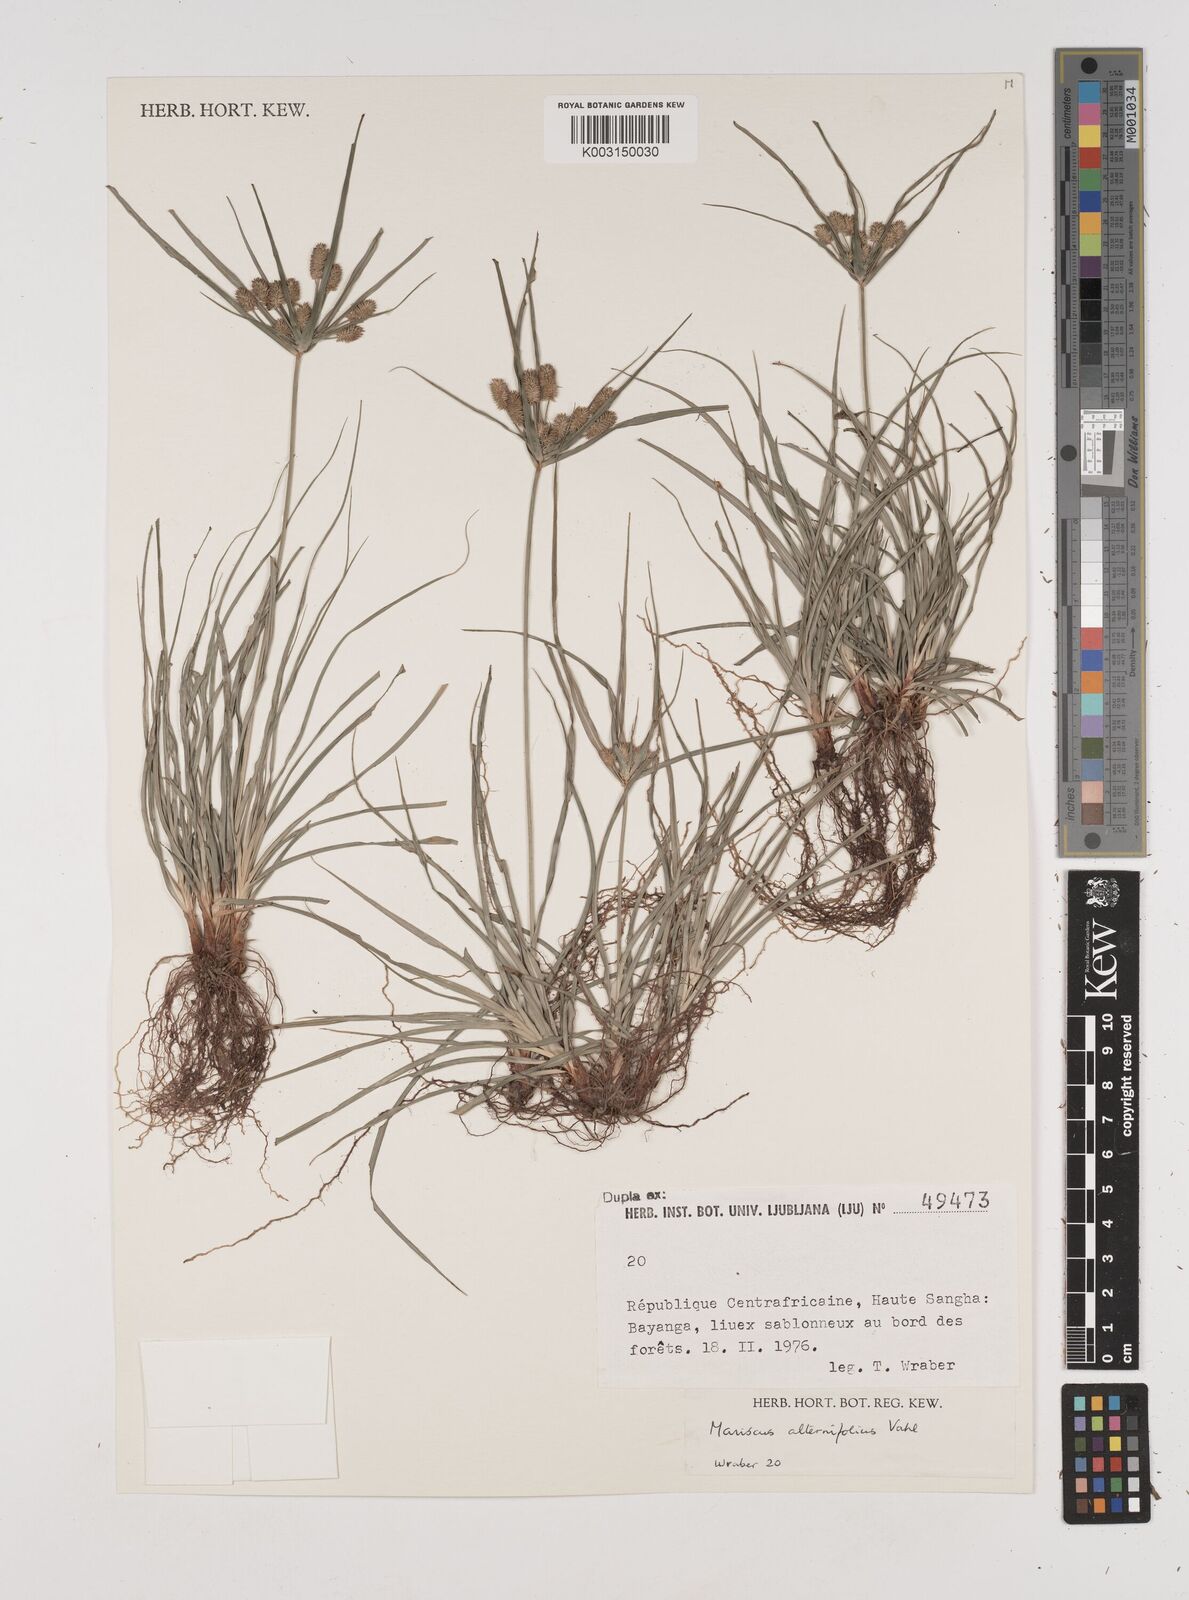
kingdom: Plantae
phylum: Tracheophyta
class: Liliopsida
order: Poales
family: Cyperaceae
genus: Cyperus
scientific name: Cyperus cyperoides
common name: Pacific island flat sedge
